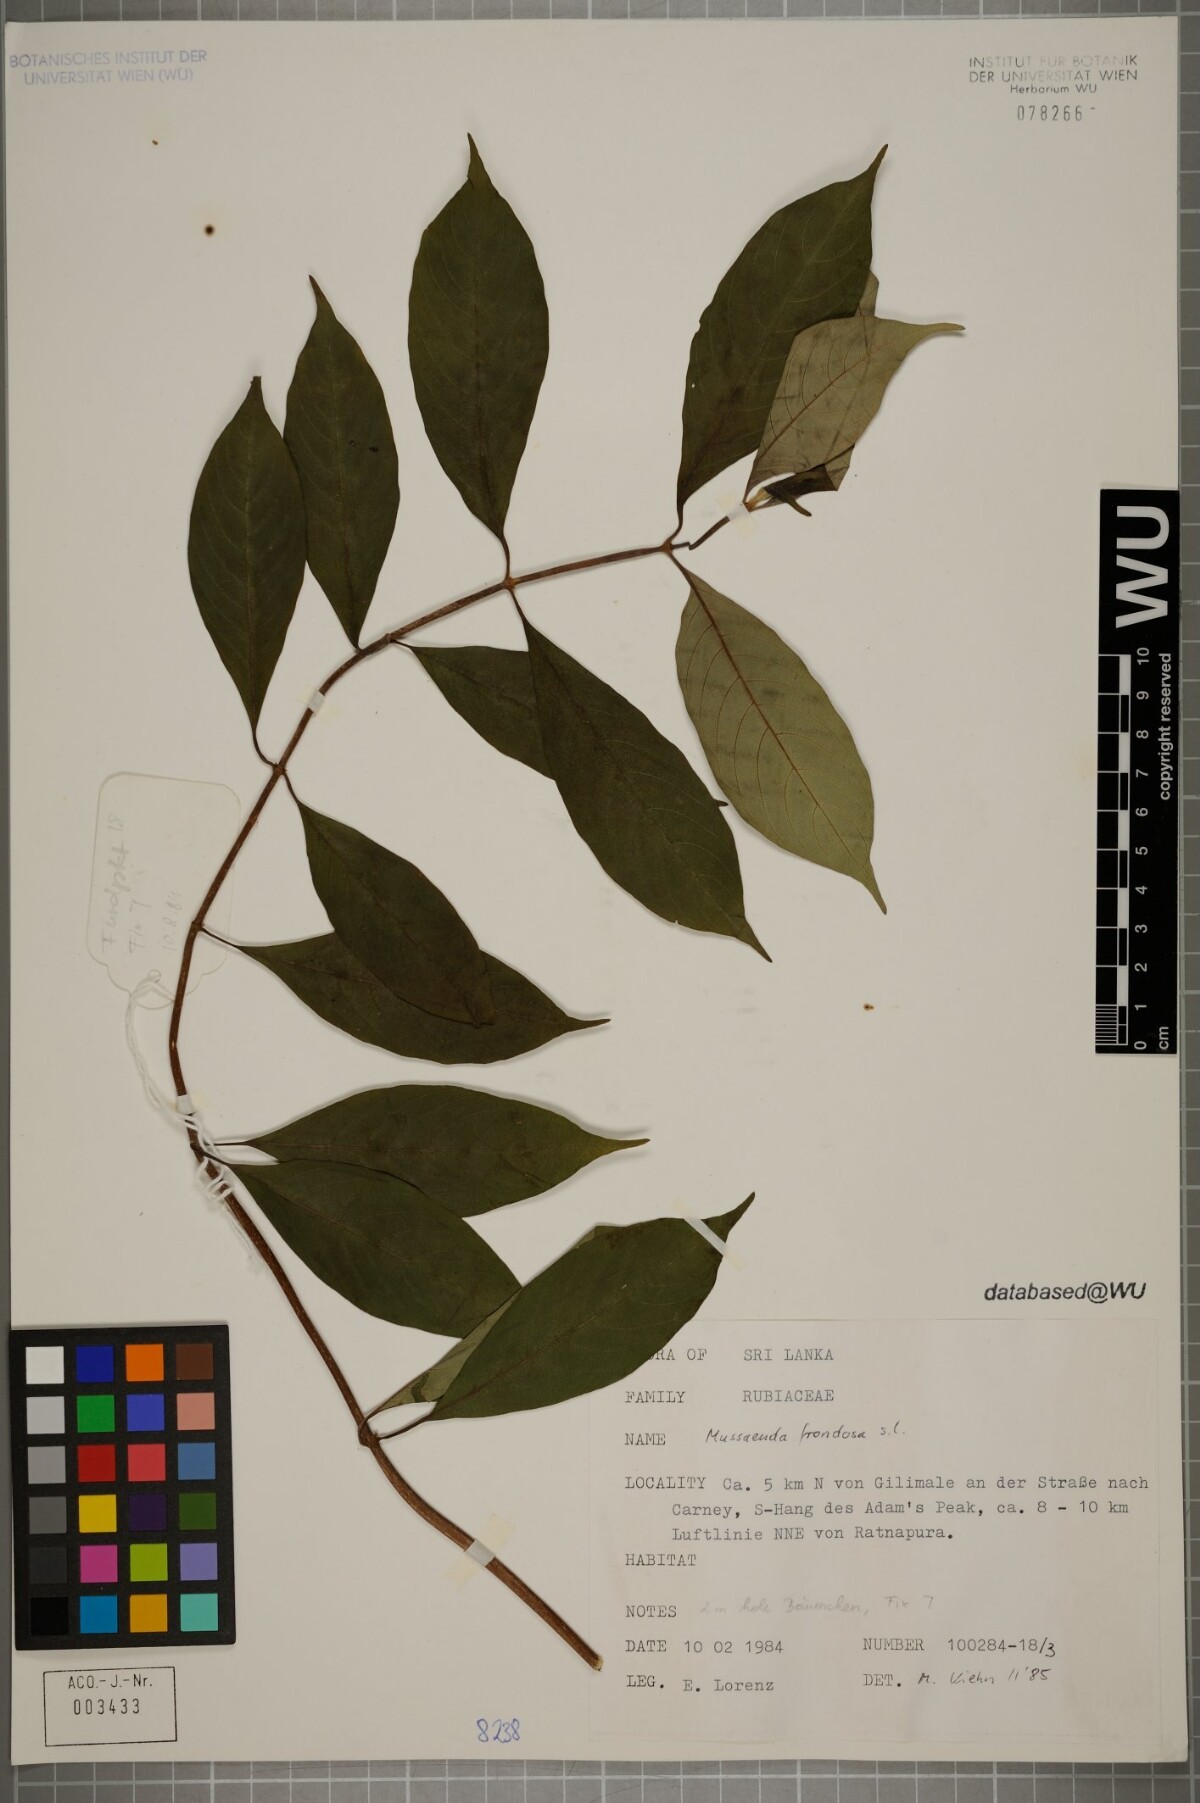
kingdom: Plantae
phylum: Tracheophyta
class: Magnoliopsida
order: Gentianales
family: Rubiaceae
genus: Mussaenda
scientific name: Mussaenda frondosa
